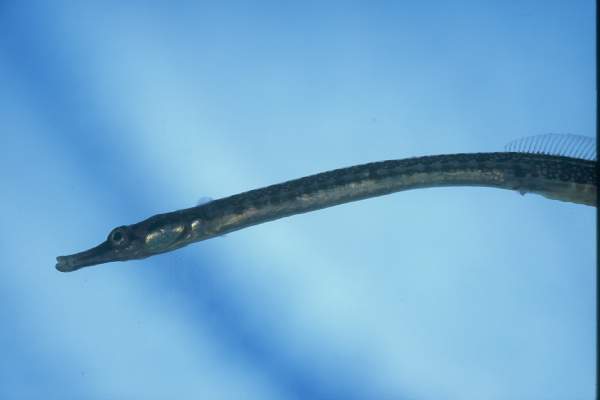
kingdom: Animalia
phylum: Chordata
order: Syngnathiformes
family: Syngnathidae
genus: Syngnathus
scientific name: Syngnathus acus
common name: Greater pipefish
